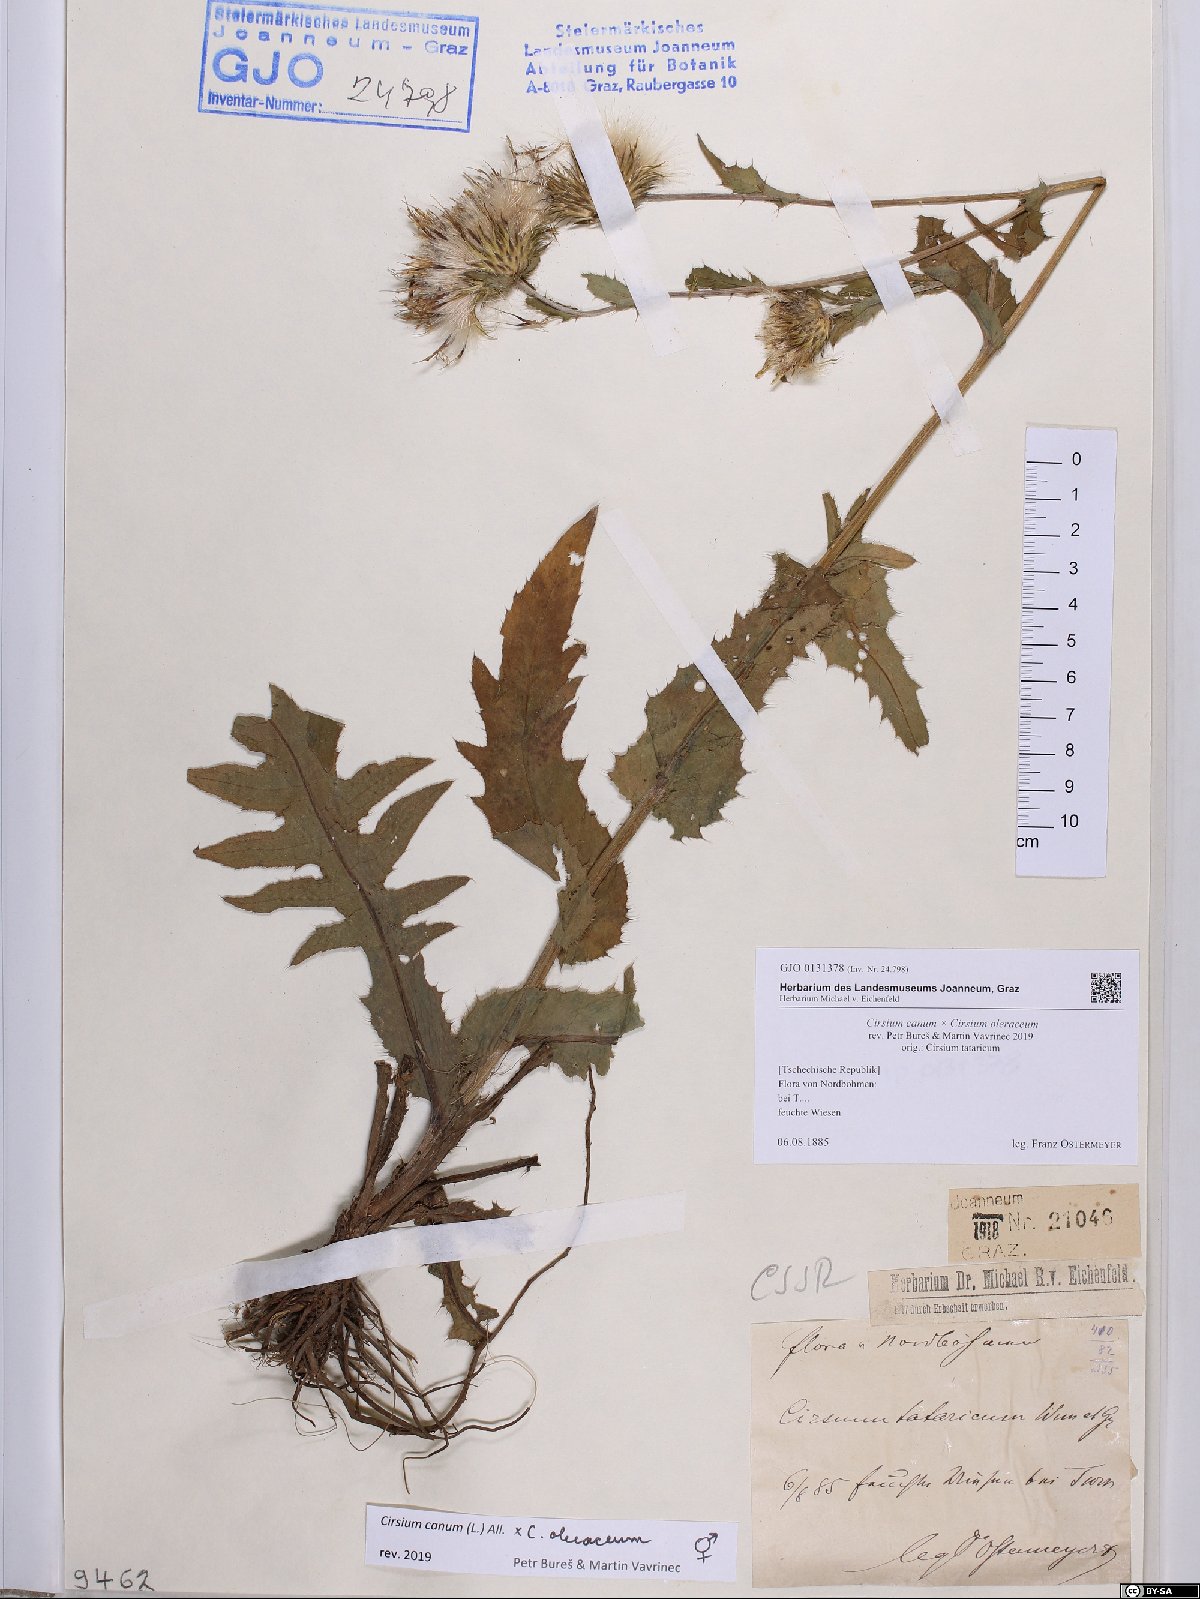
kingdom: Plantae
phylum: Tracheophyta
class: Magnoliopsida
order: Asterales
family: Asteraceae
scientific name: Asteraceae
